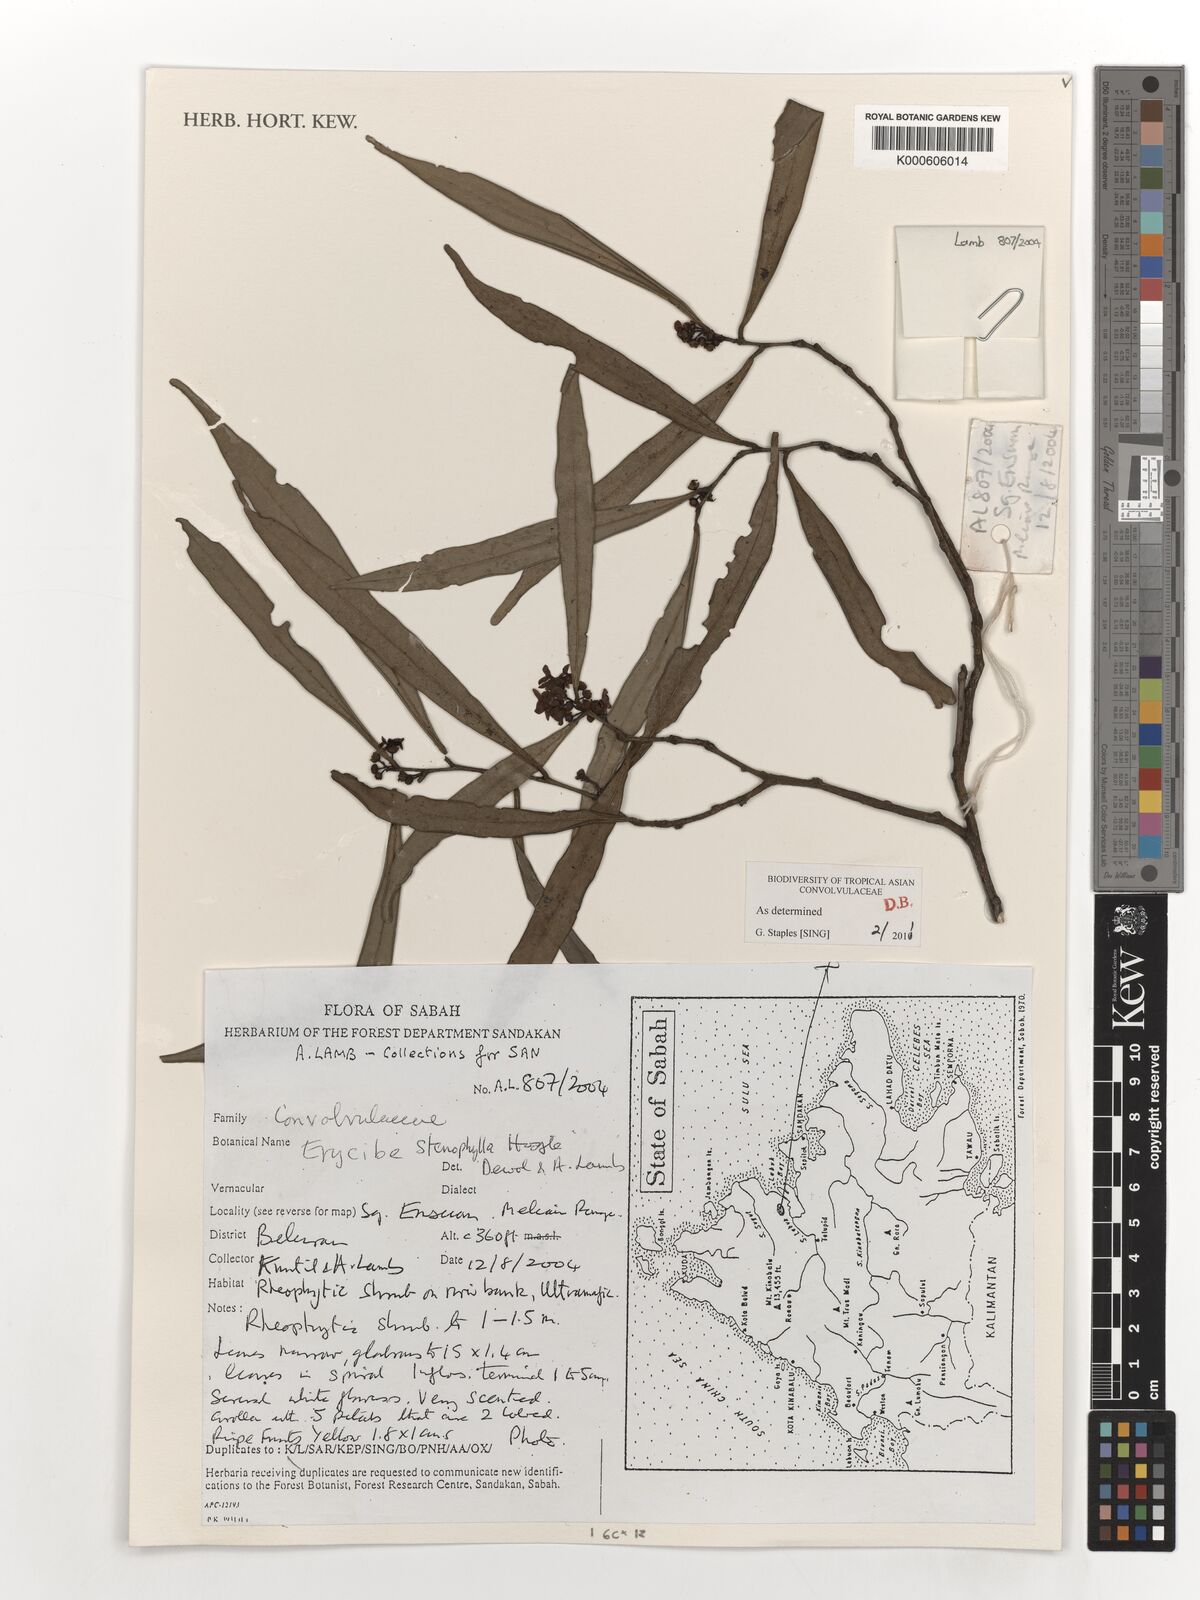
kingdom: Plantae
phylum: Tracheophyta
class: Magnoliopsida
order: Solanales
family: Convolvulaceae
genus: Erycibe
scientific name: Erycibe stenophylla
